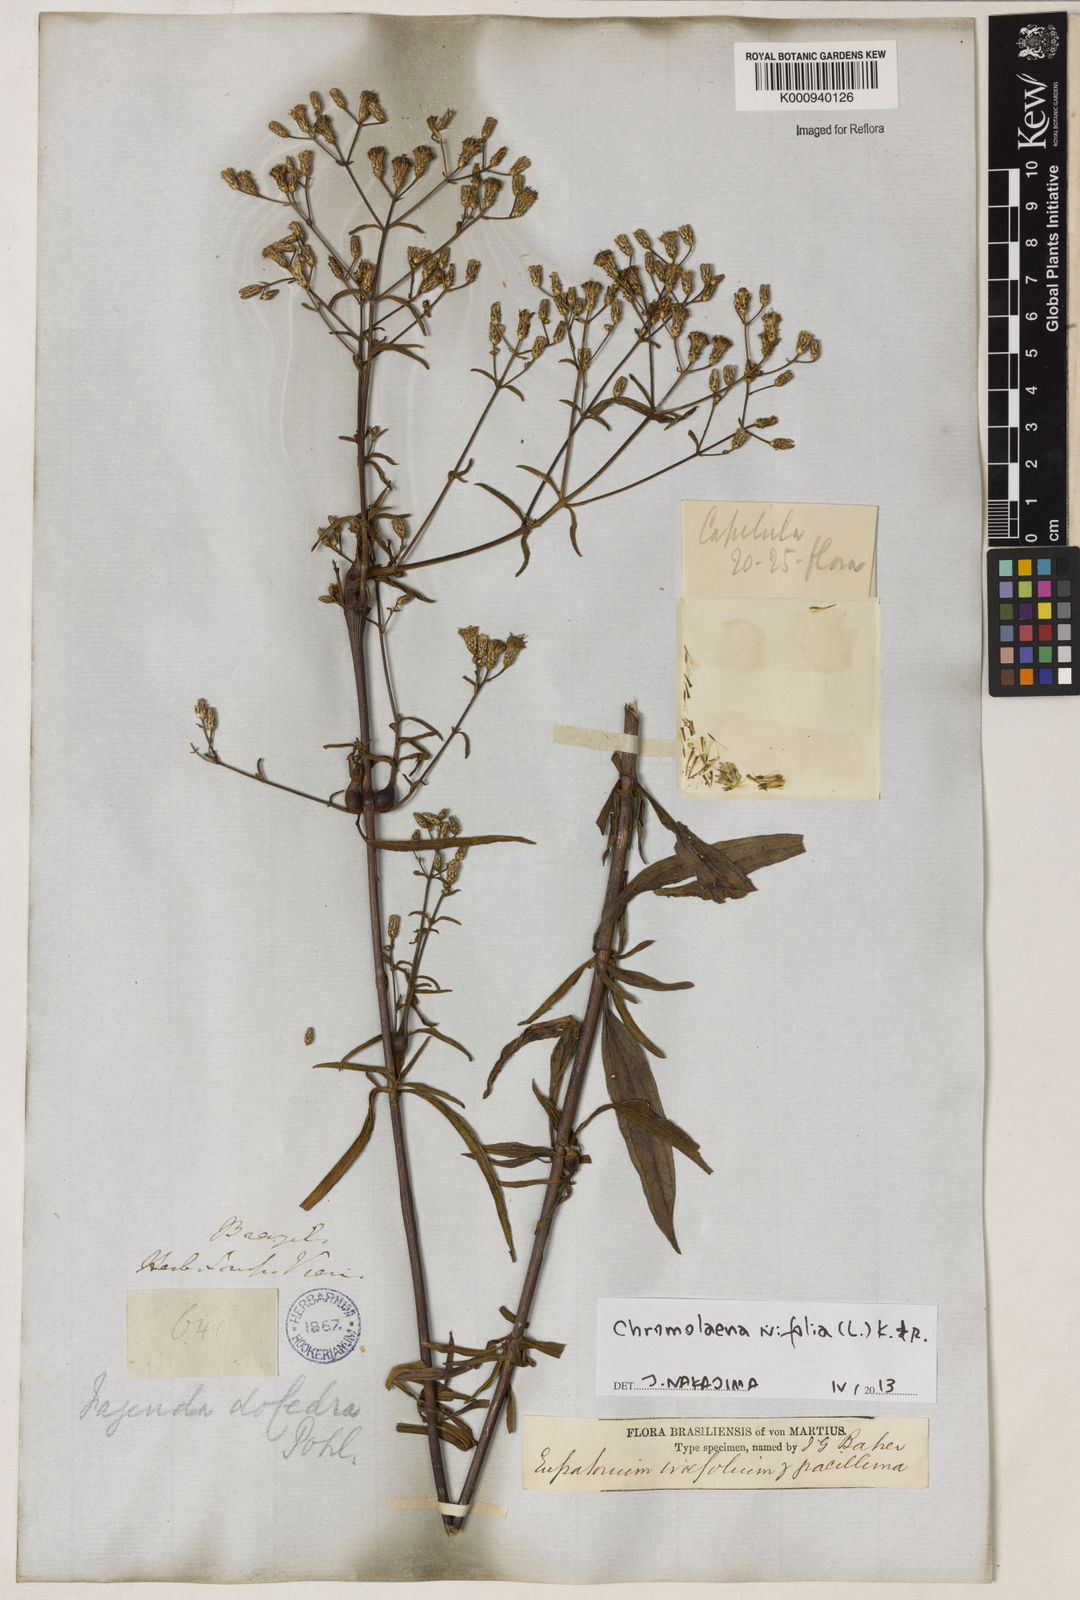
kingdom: Plantae
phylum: Tracheophyta
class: Magnoliopsida
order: Asterales
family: Asteraceae
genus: Chromolaena
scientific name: Chromolaena ivifolia
